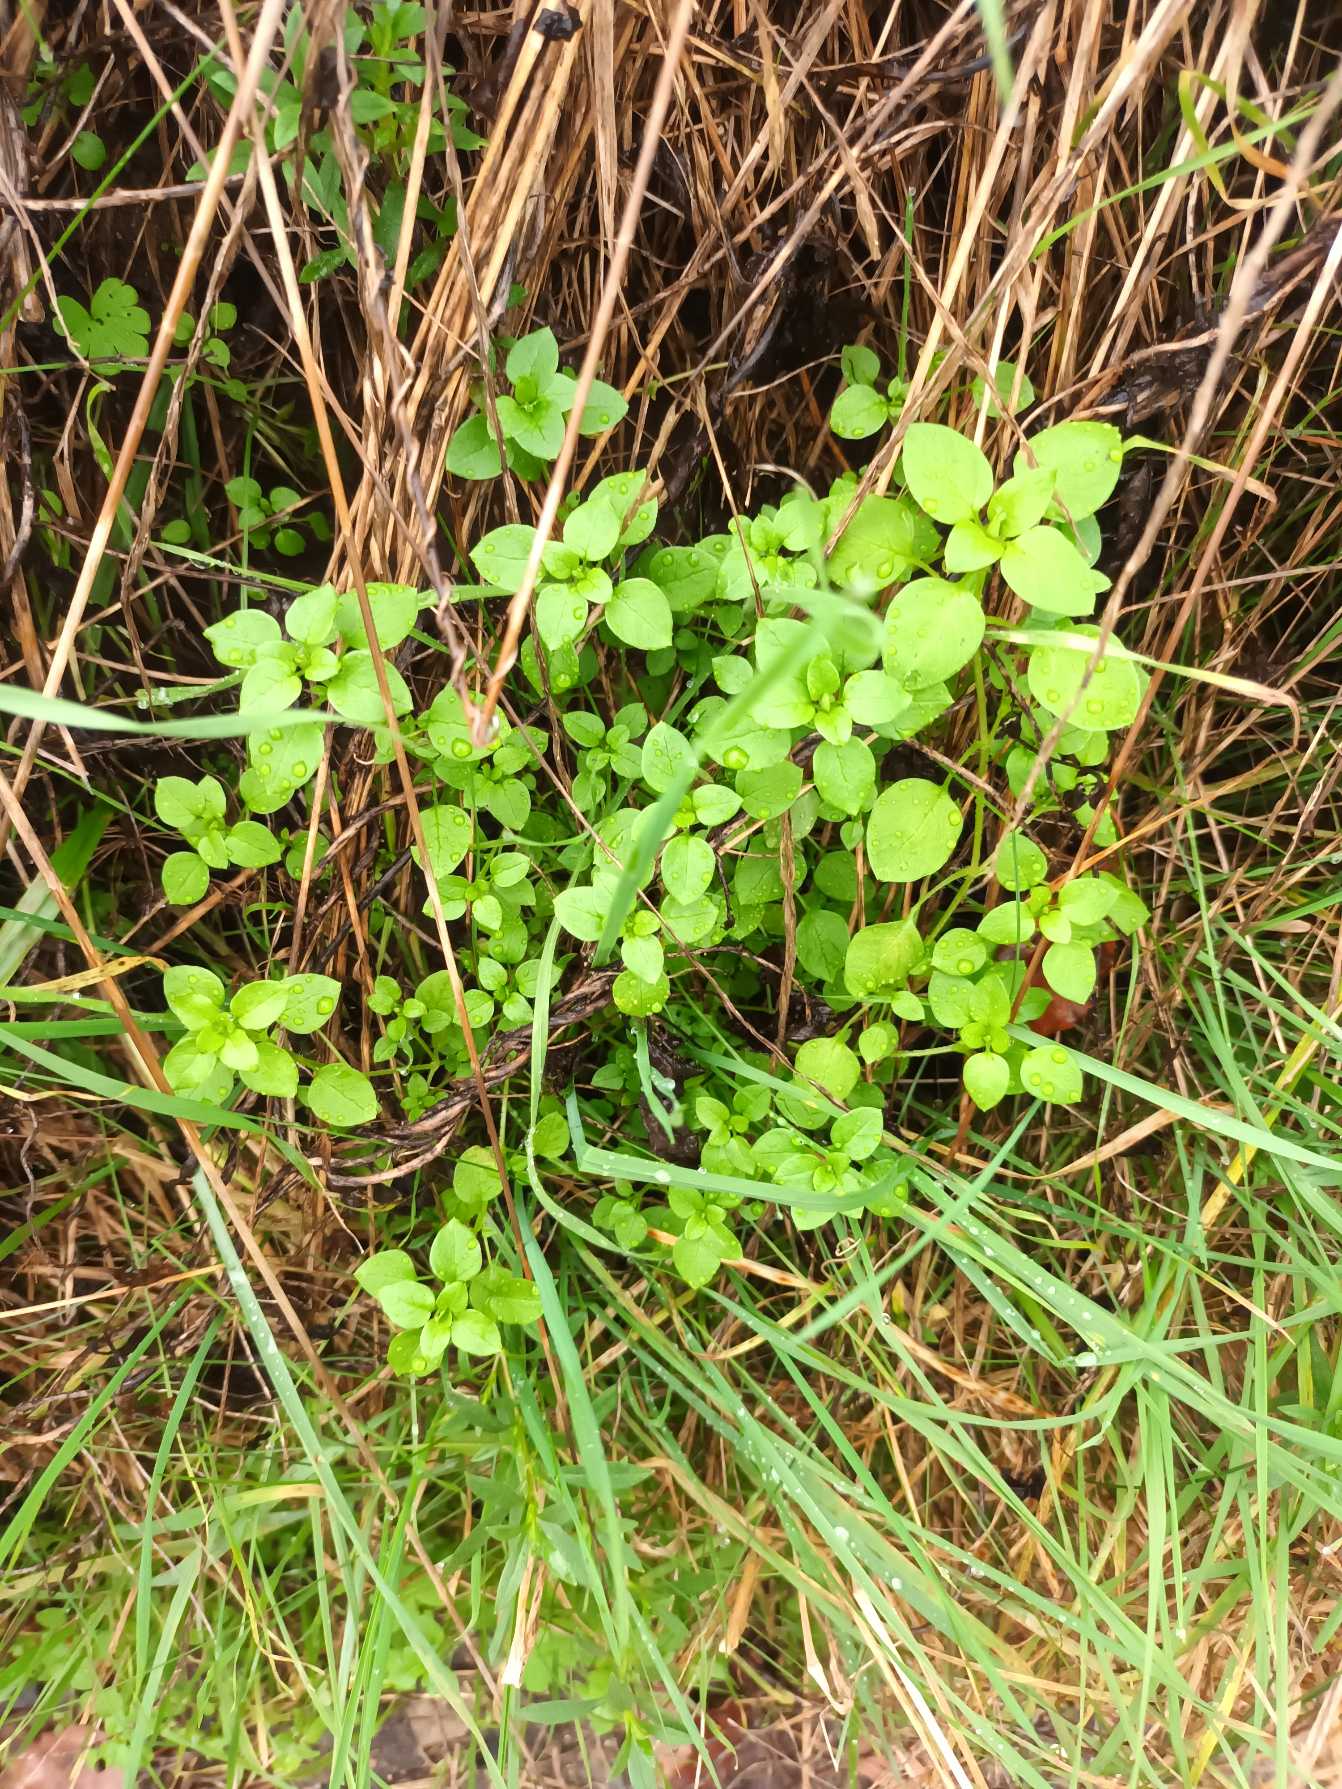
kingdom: Plantae
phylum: Tracheophyta
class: Magnoliopsida
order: Caryophyllales
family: Caryophyllaceae
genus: Stellaria
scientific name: Stellaria media
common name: Almindelig fuglegræs
